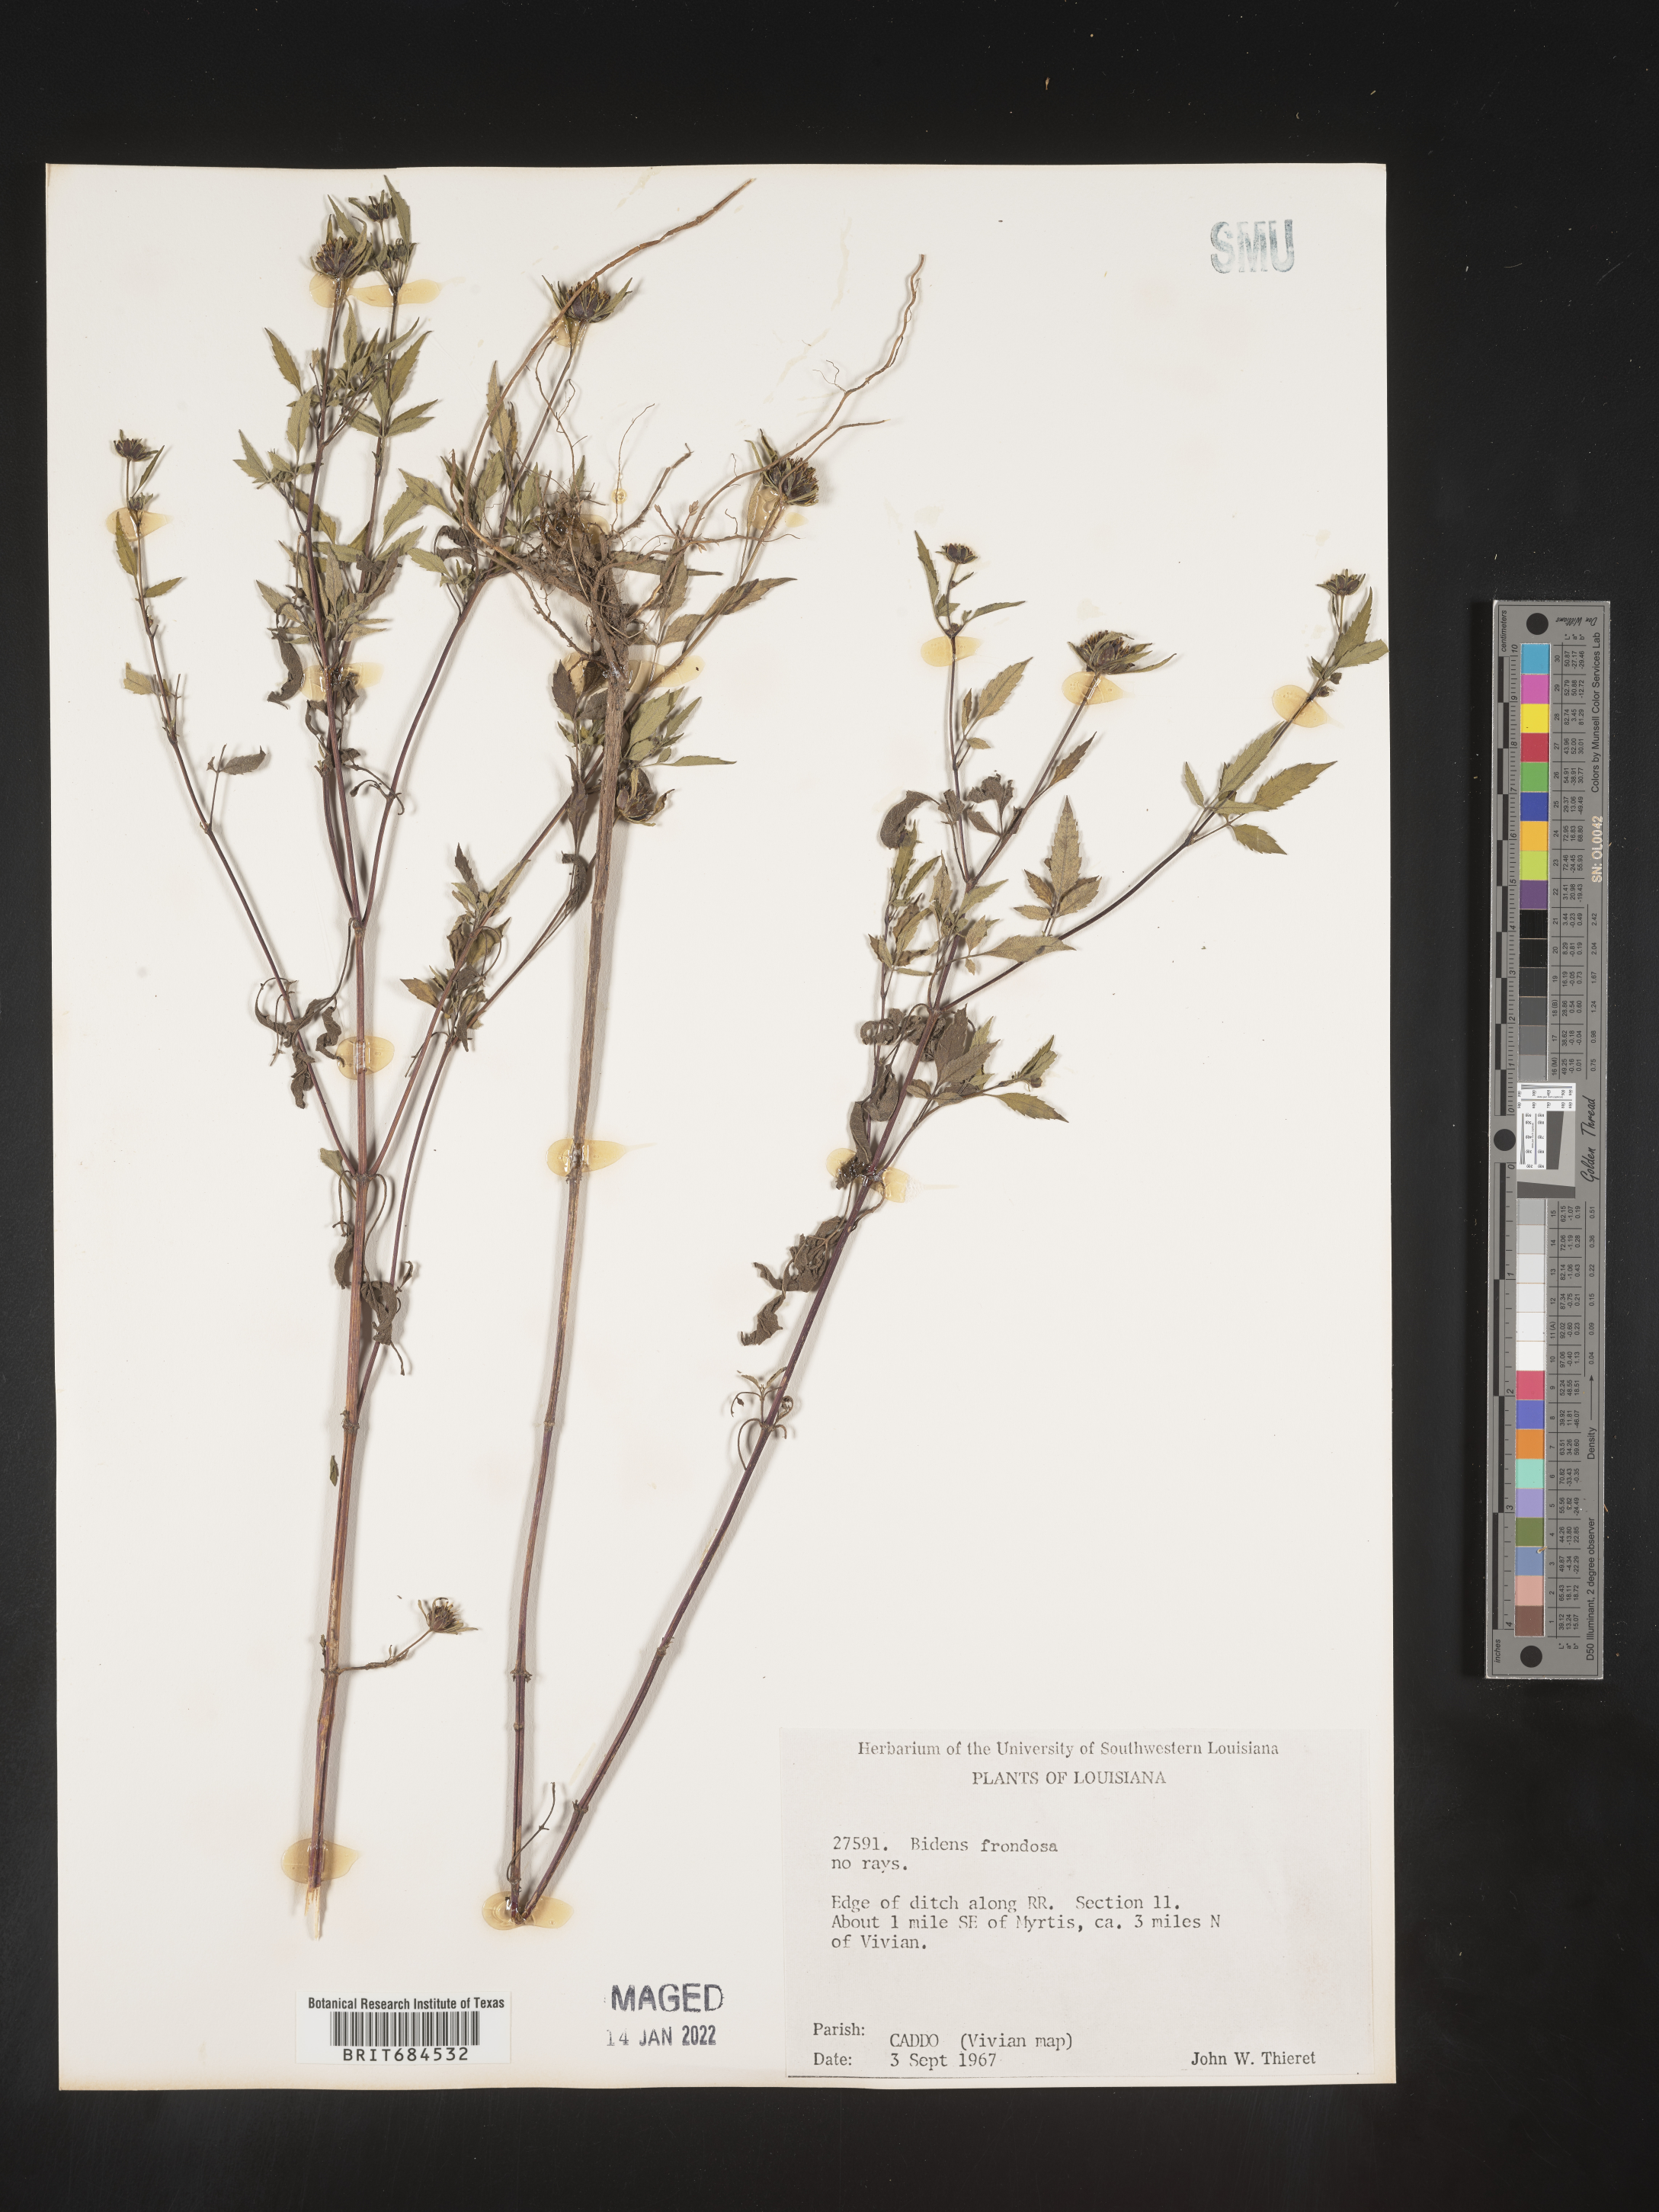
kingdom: Plantae
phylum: Tracheophyta
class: Magnoliopsida
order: Asterales
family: Asteraceae
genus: Bidens
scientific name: Bidens frondosa
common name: Beggarticks
